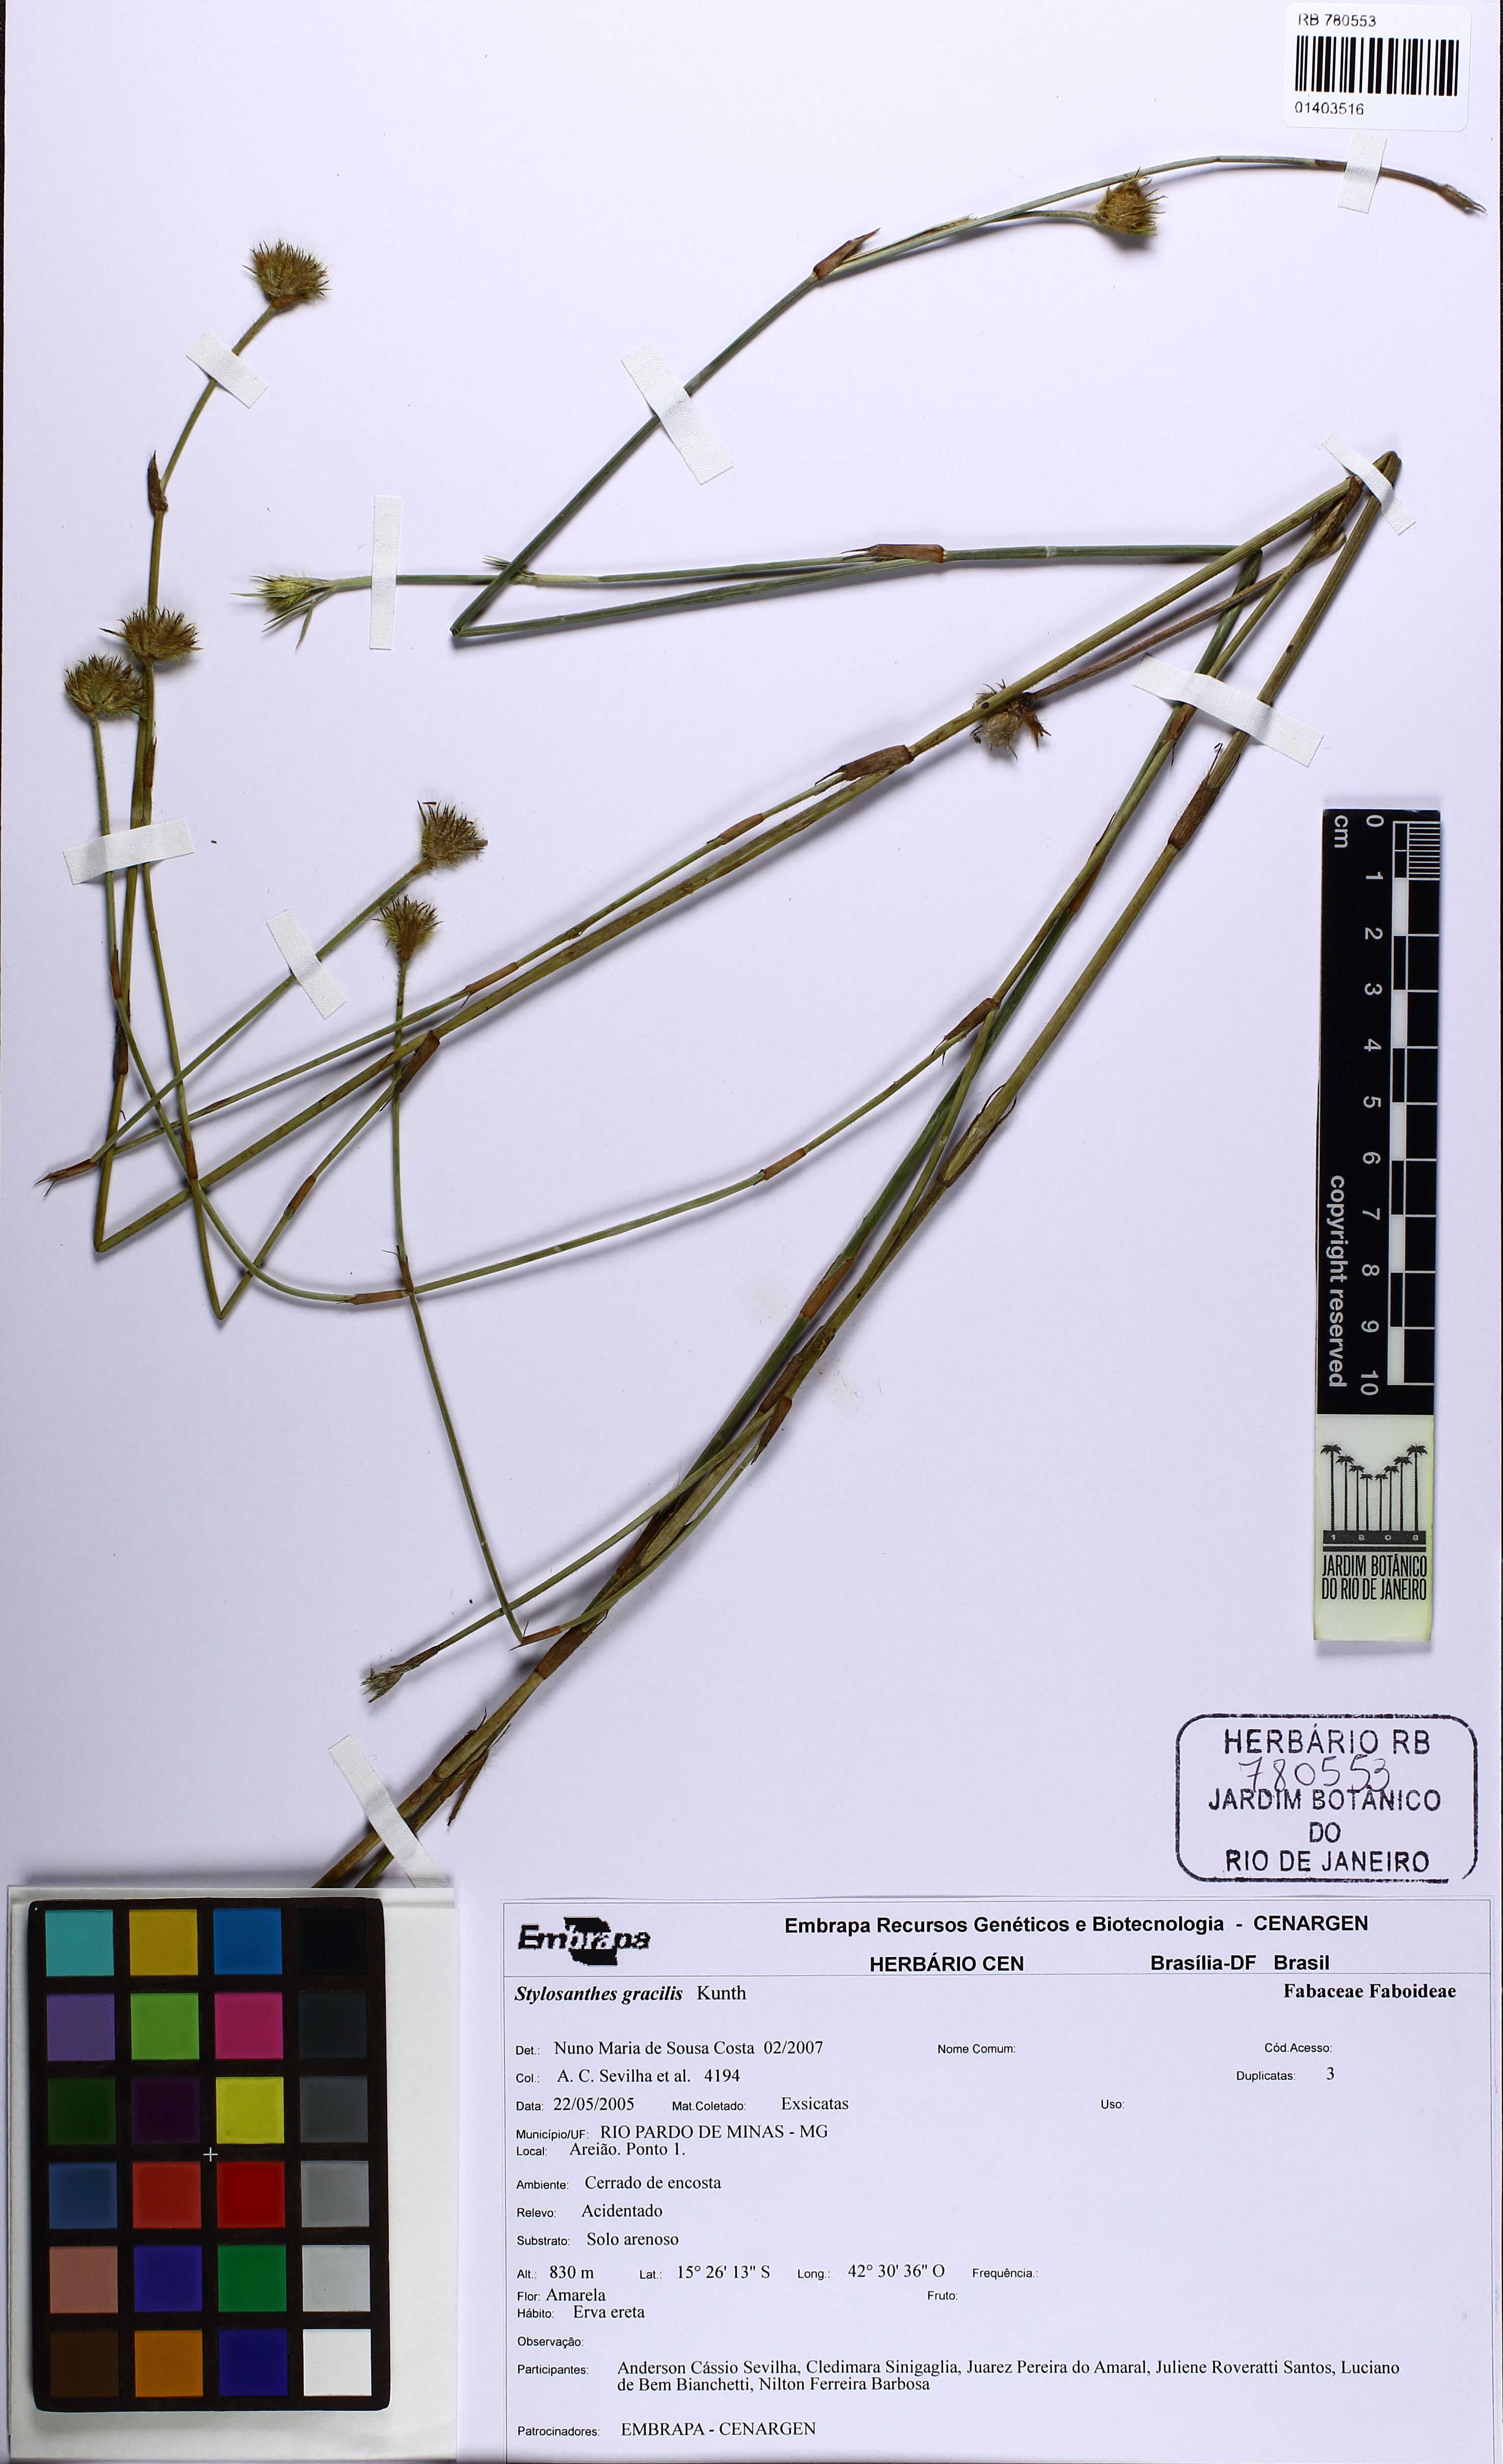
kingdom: Plantae
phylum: Tracheophyta
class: Magnoliopsida
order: Fabales
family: Fabaceae
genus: Stylosanthes
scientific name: Stylosanthes guianensis
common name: Pencil flower
